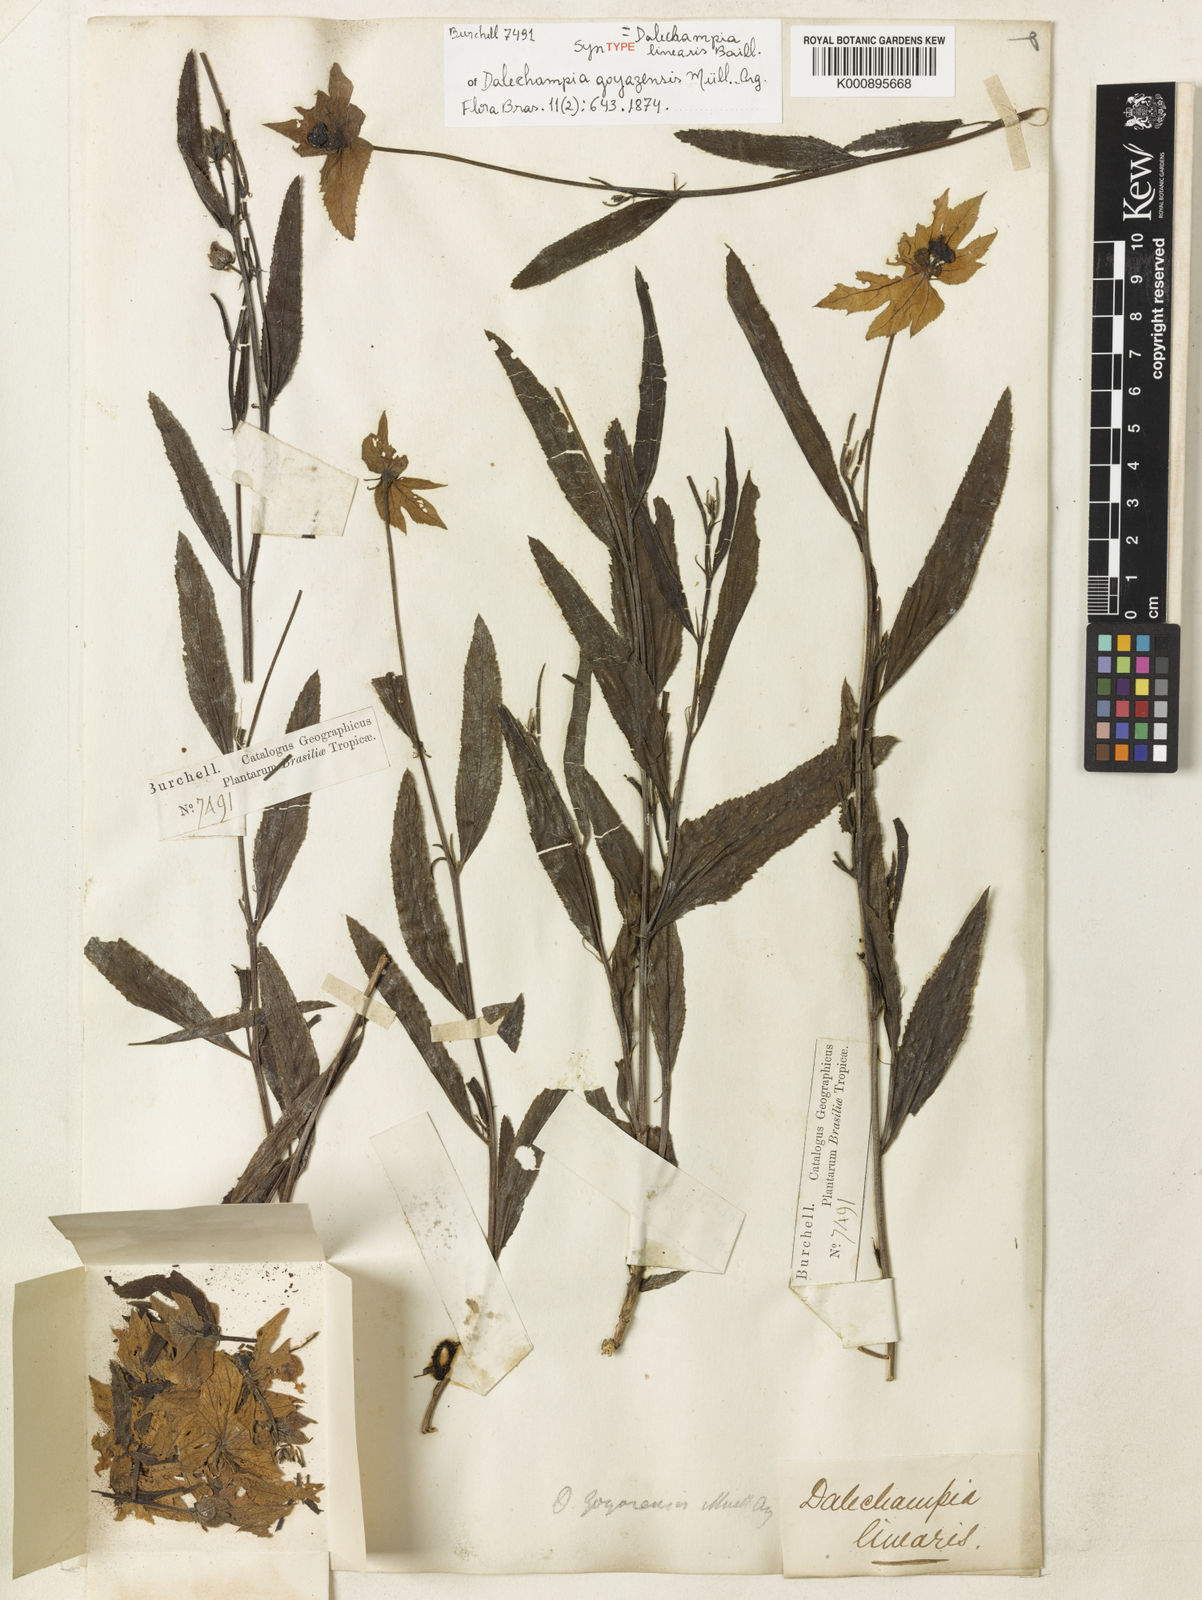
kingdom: Plantae
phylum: Tracheophyta
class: Magnoliopsida
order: Malpighiales
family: Euphorbiaceae
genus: Dalechampia
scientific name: Dalechampia linearis
